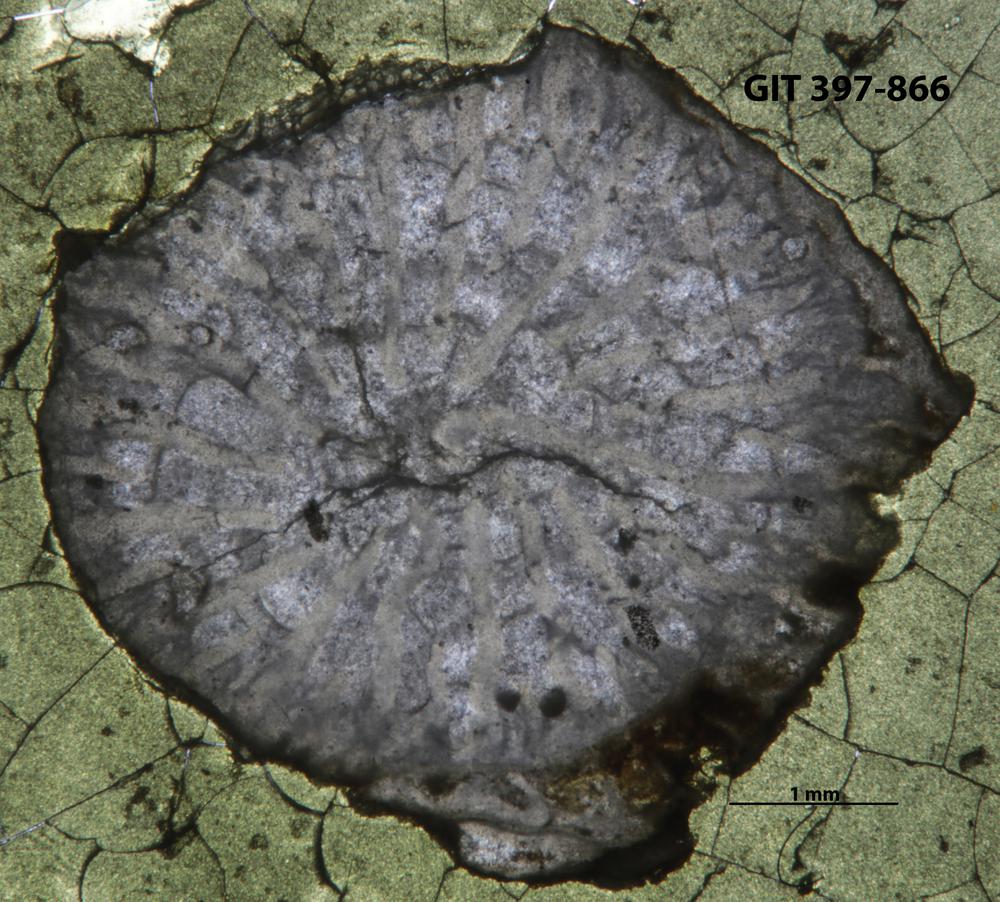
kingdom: Animalia
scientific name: Animalia
